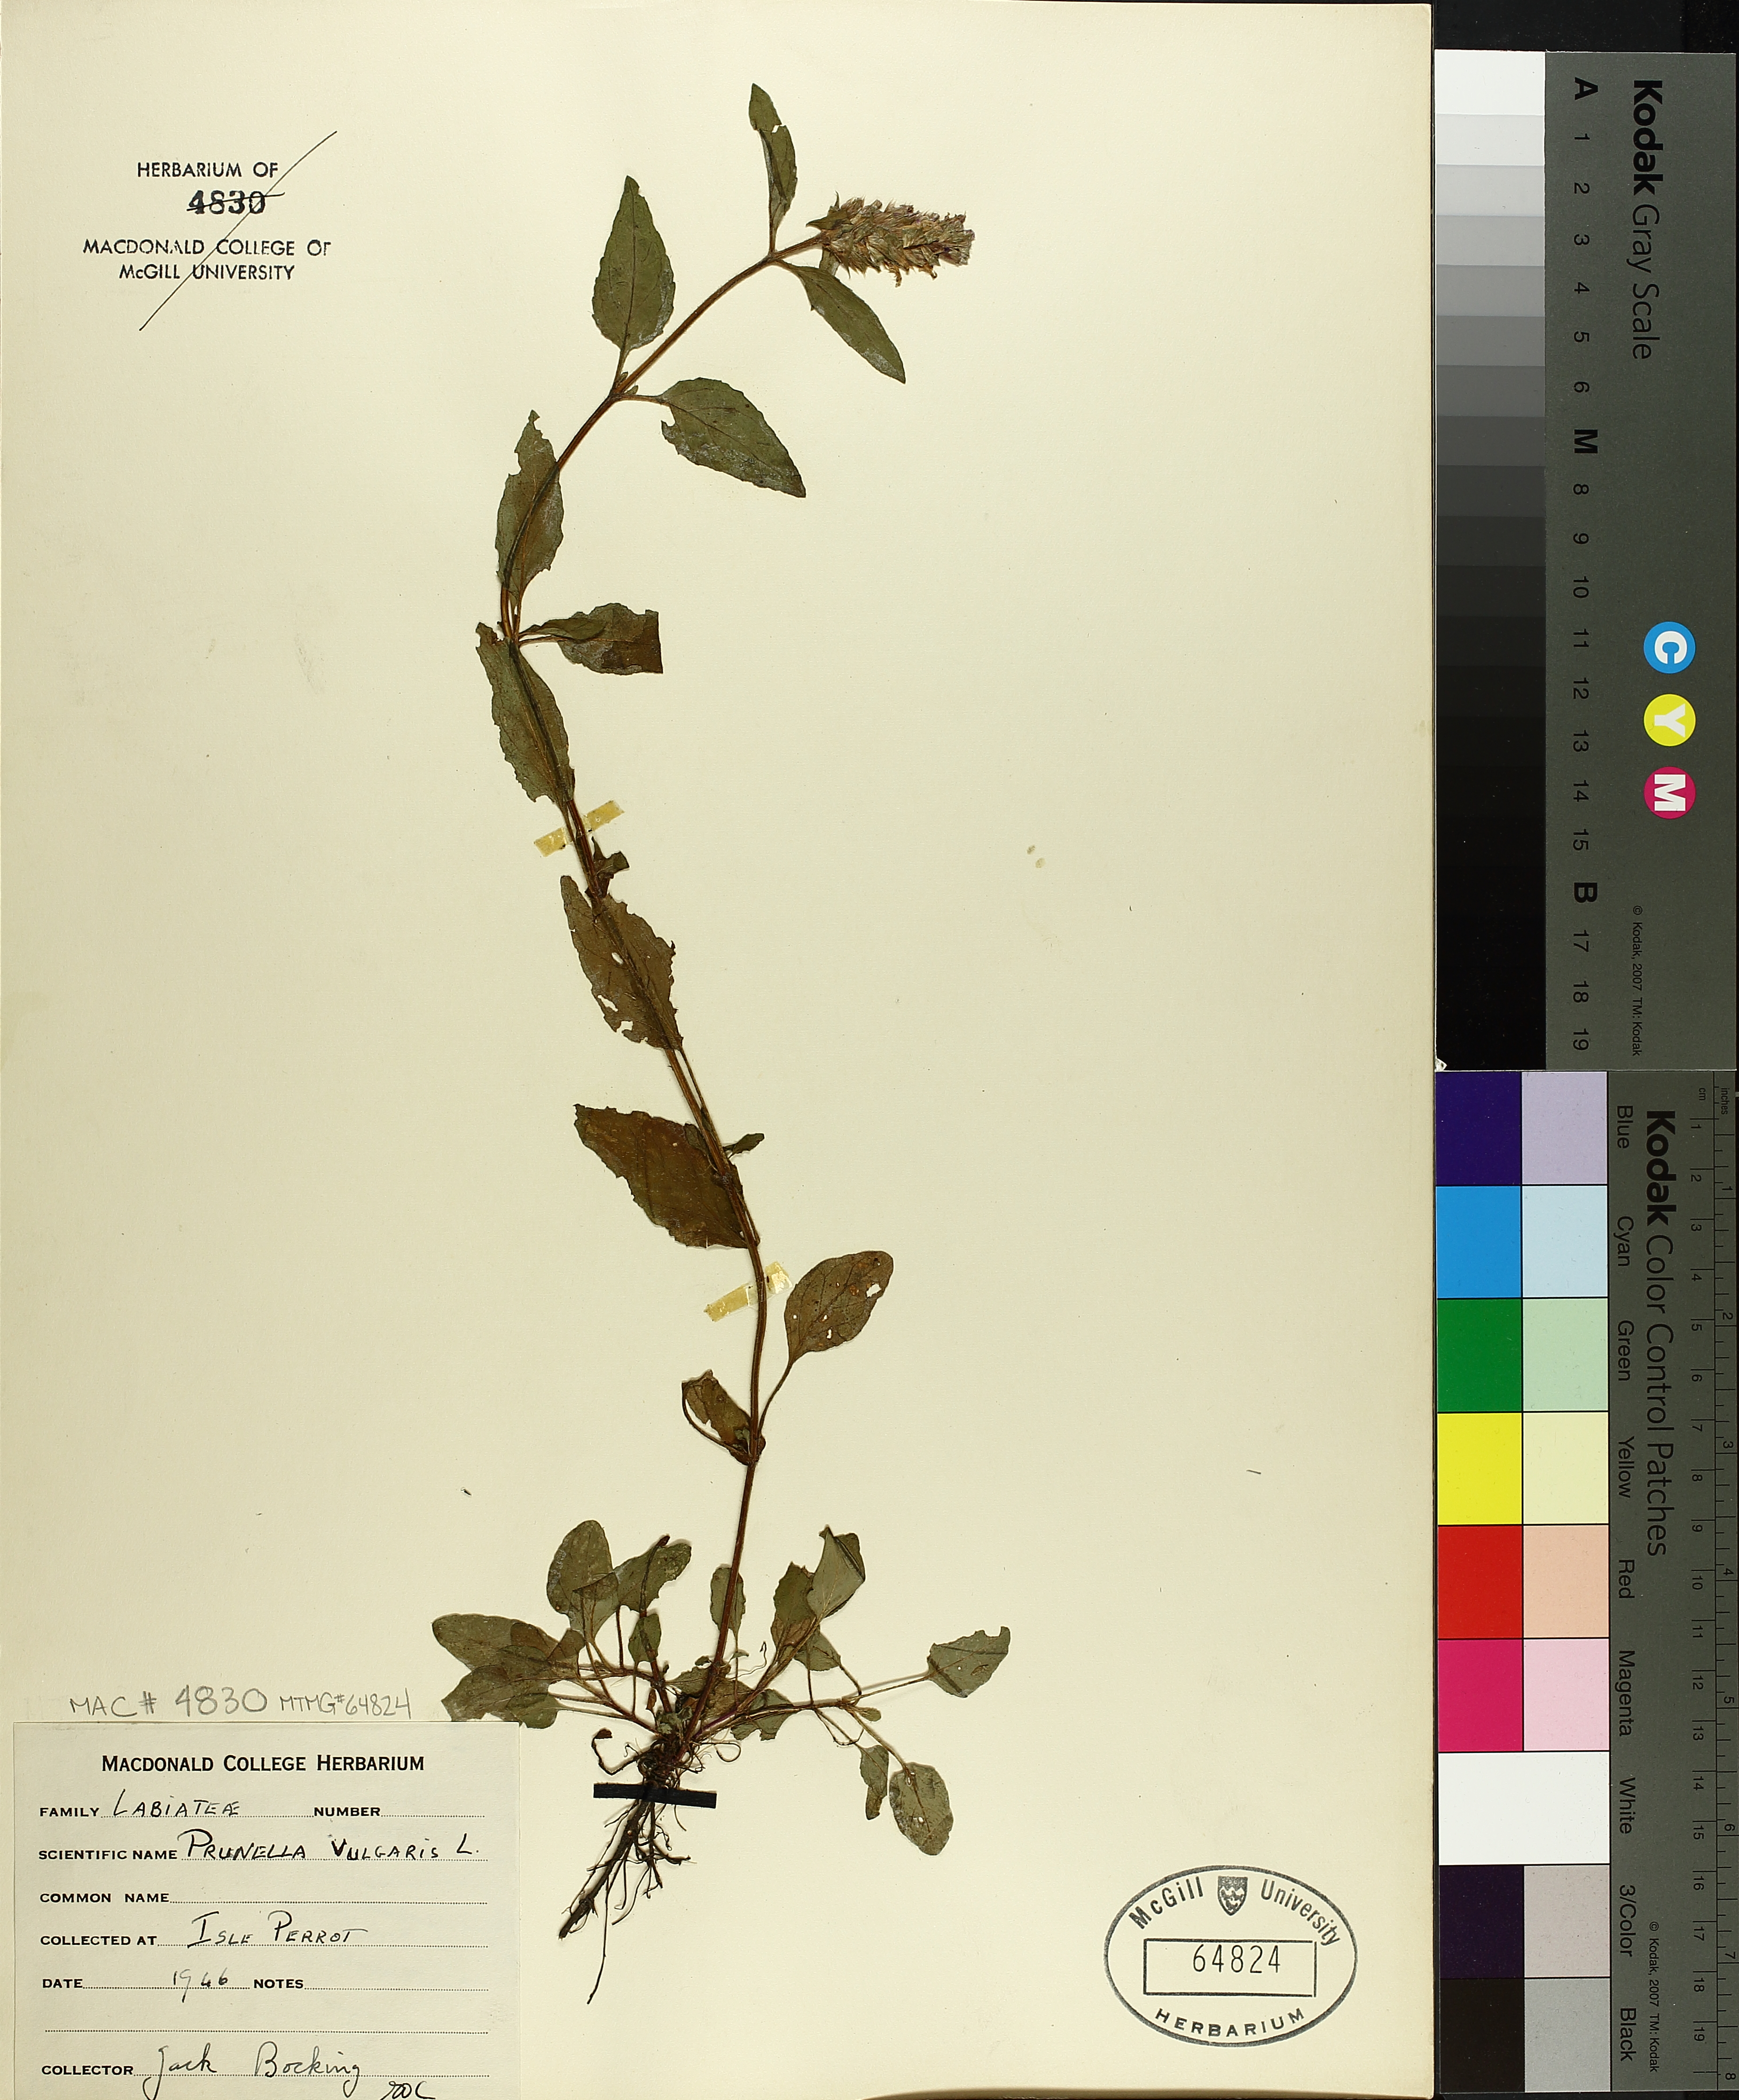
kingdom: Plantae
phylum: Tracheophyta
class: Magnoliopsida
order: Lamiales
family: Lamiaceae
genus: Prunella
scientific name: Prunella vulgaris
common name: Heal-all
